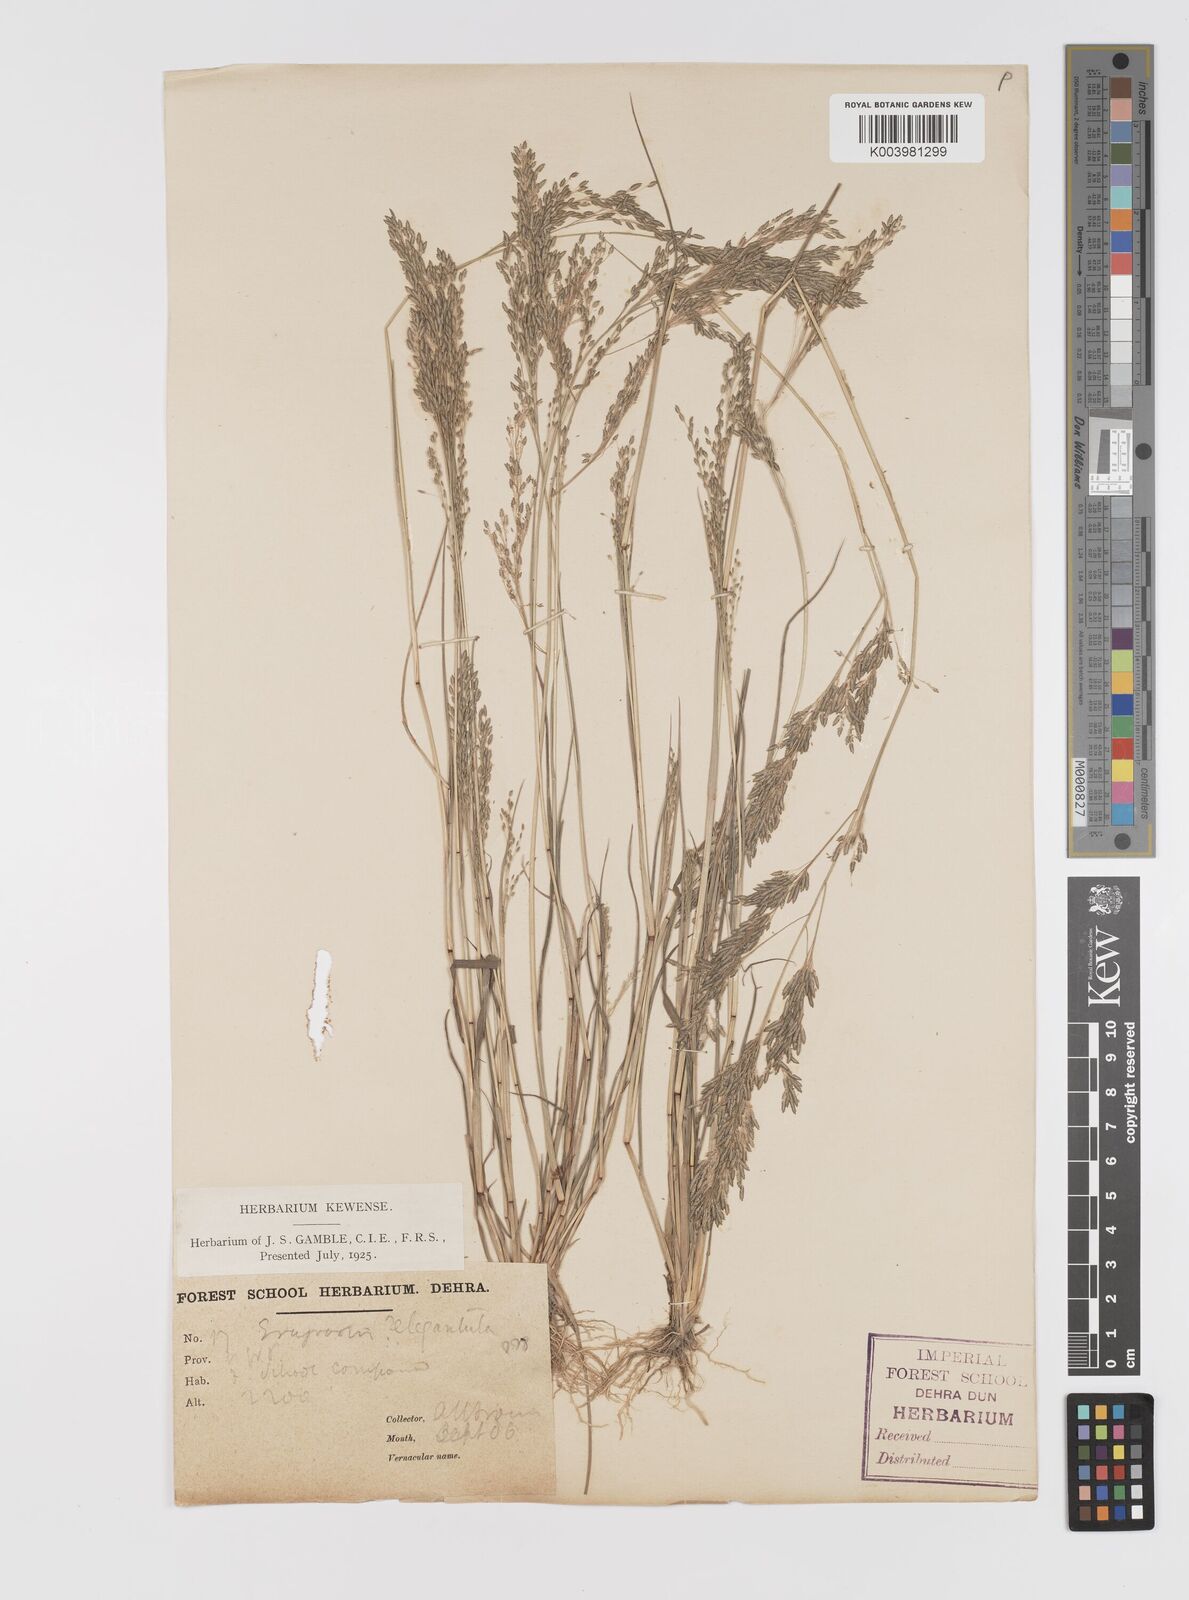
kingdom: Plantae
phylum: Tracheophyta
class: Liliopsida
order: Poales
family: Poaceae
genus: Eragrostis
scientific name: Eragrostis gangetica
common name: Slimflower lovegrass
